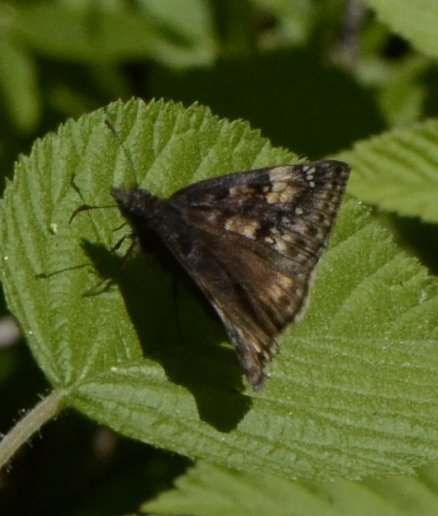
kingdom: Animalia
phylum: Arthropoda
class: Insecta
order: Lepidoptera
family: Hesperiidae
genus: Gesta
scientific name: Gesta
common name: Juvenal's Duskywing
